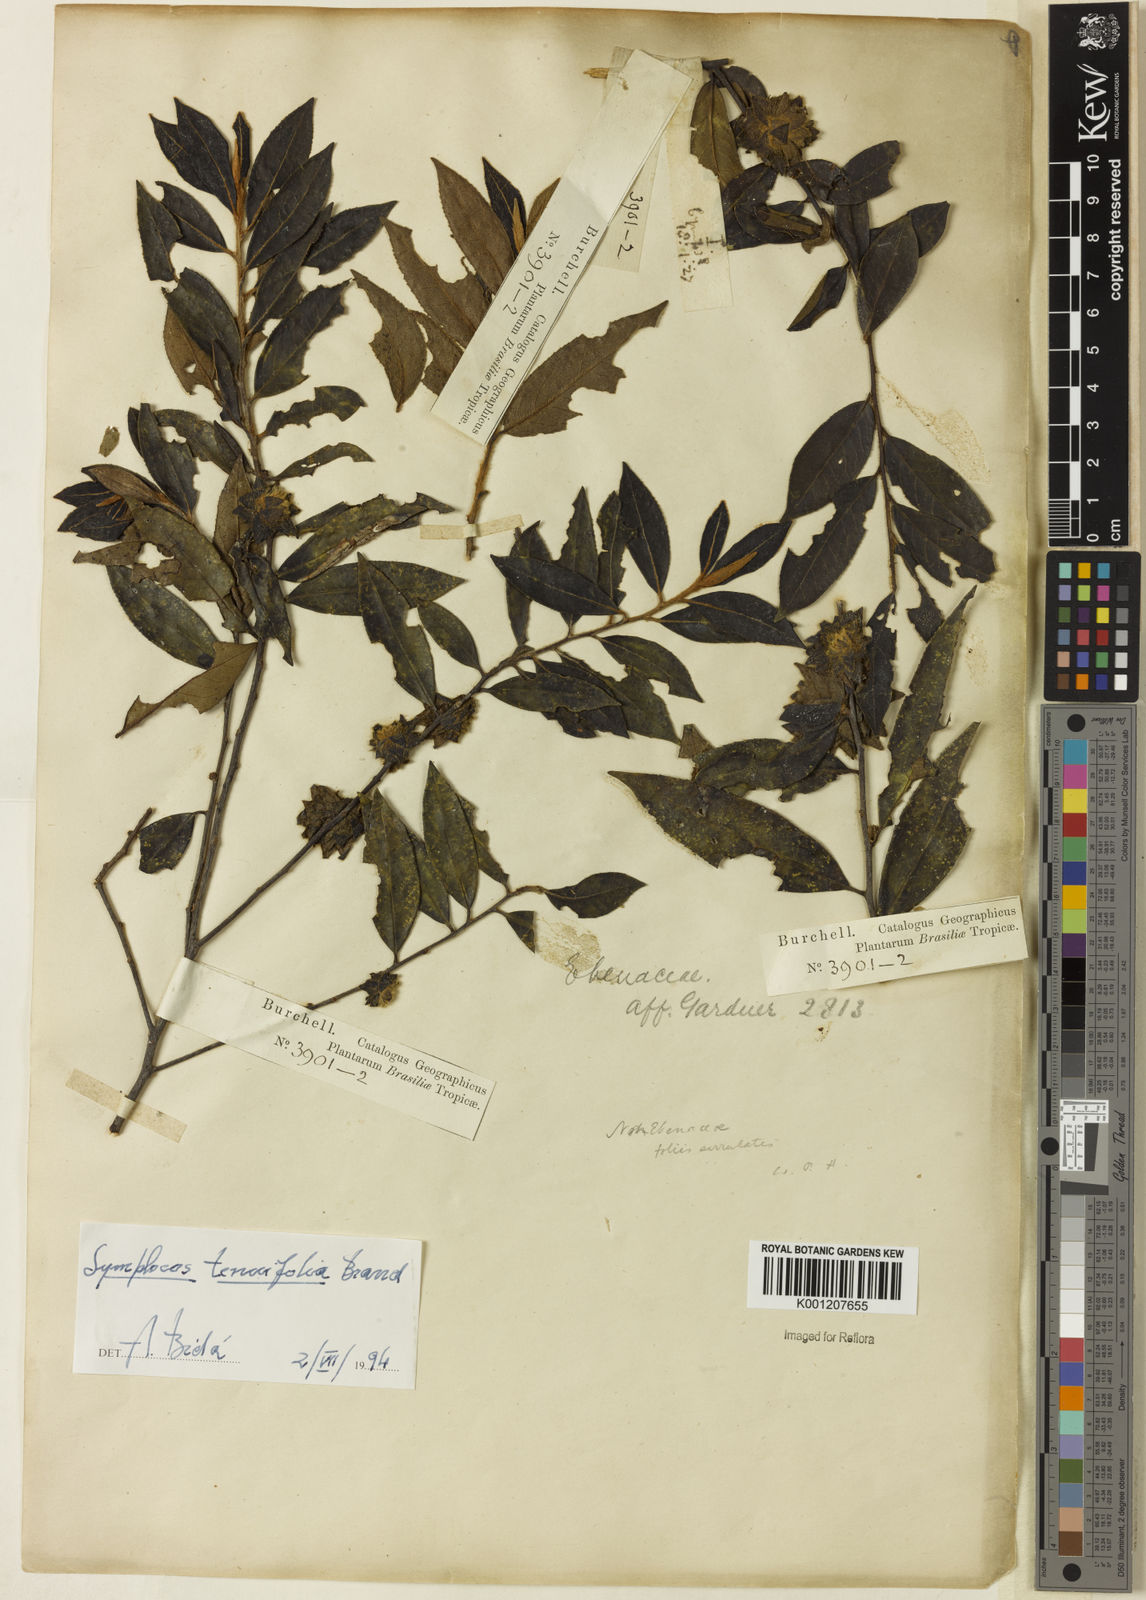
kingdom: Plantae
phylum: Tracheophyta
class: Magnoliopsida
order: Ericales
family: Symplocaceae
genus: Symplocos
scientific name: Symplocos tenuifolia
